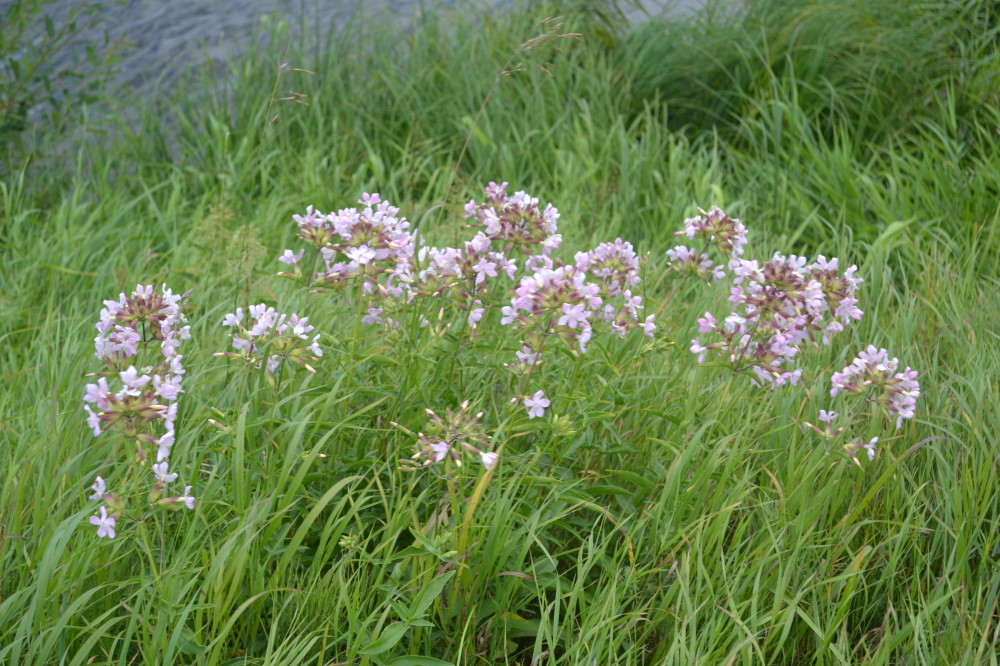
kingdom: Plantae
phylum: Tracheophyta
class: Magnoliopsida
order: Caryophyllales
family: Caryophyllaceae
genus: Saponaria
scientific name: Saponaria officinalis
